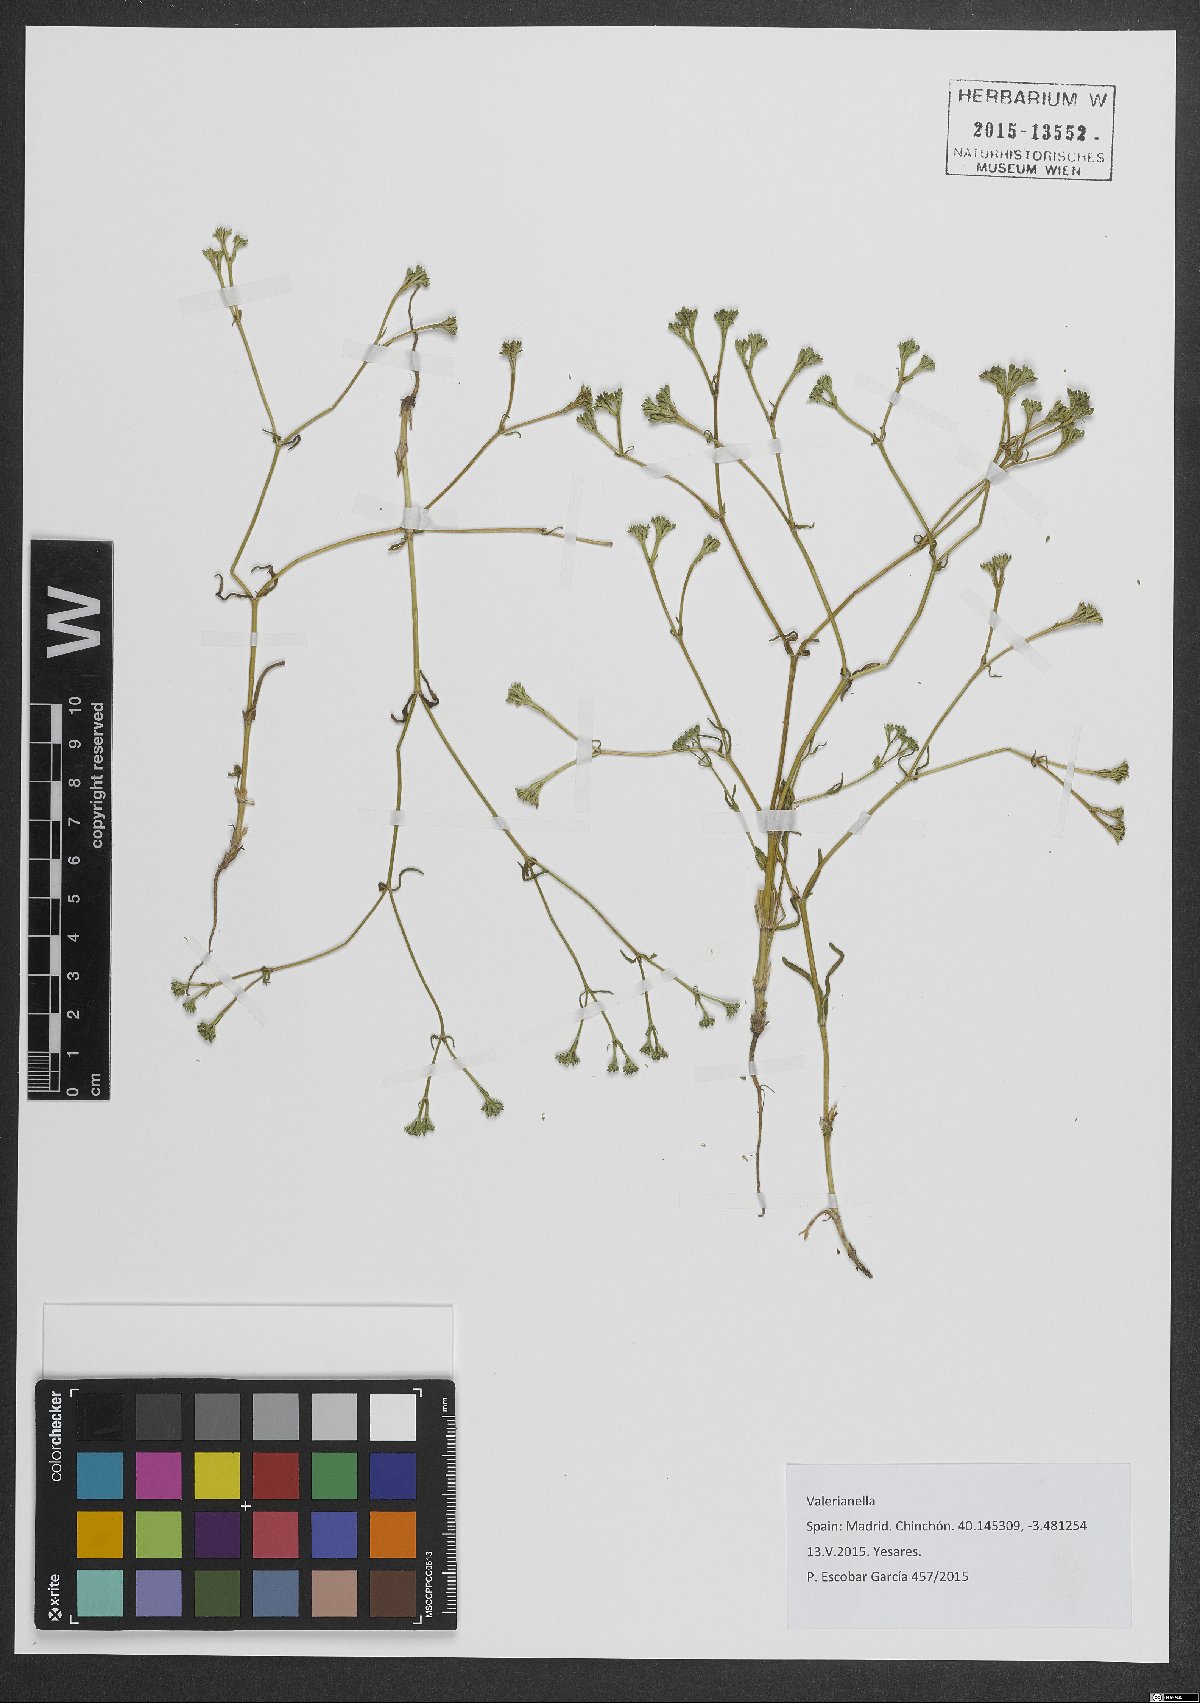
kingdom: Plantae
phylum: Tracheophyta
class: Magnoliopsida
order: Dipsacales
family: Caprifoliaceae
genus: Valerianella
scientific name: Valerianella
